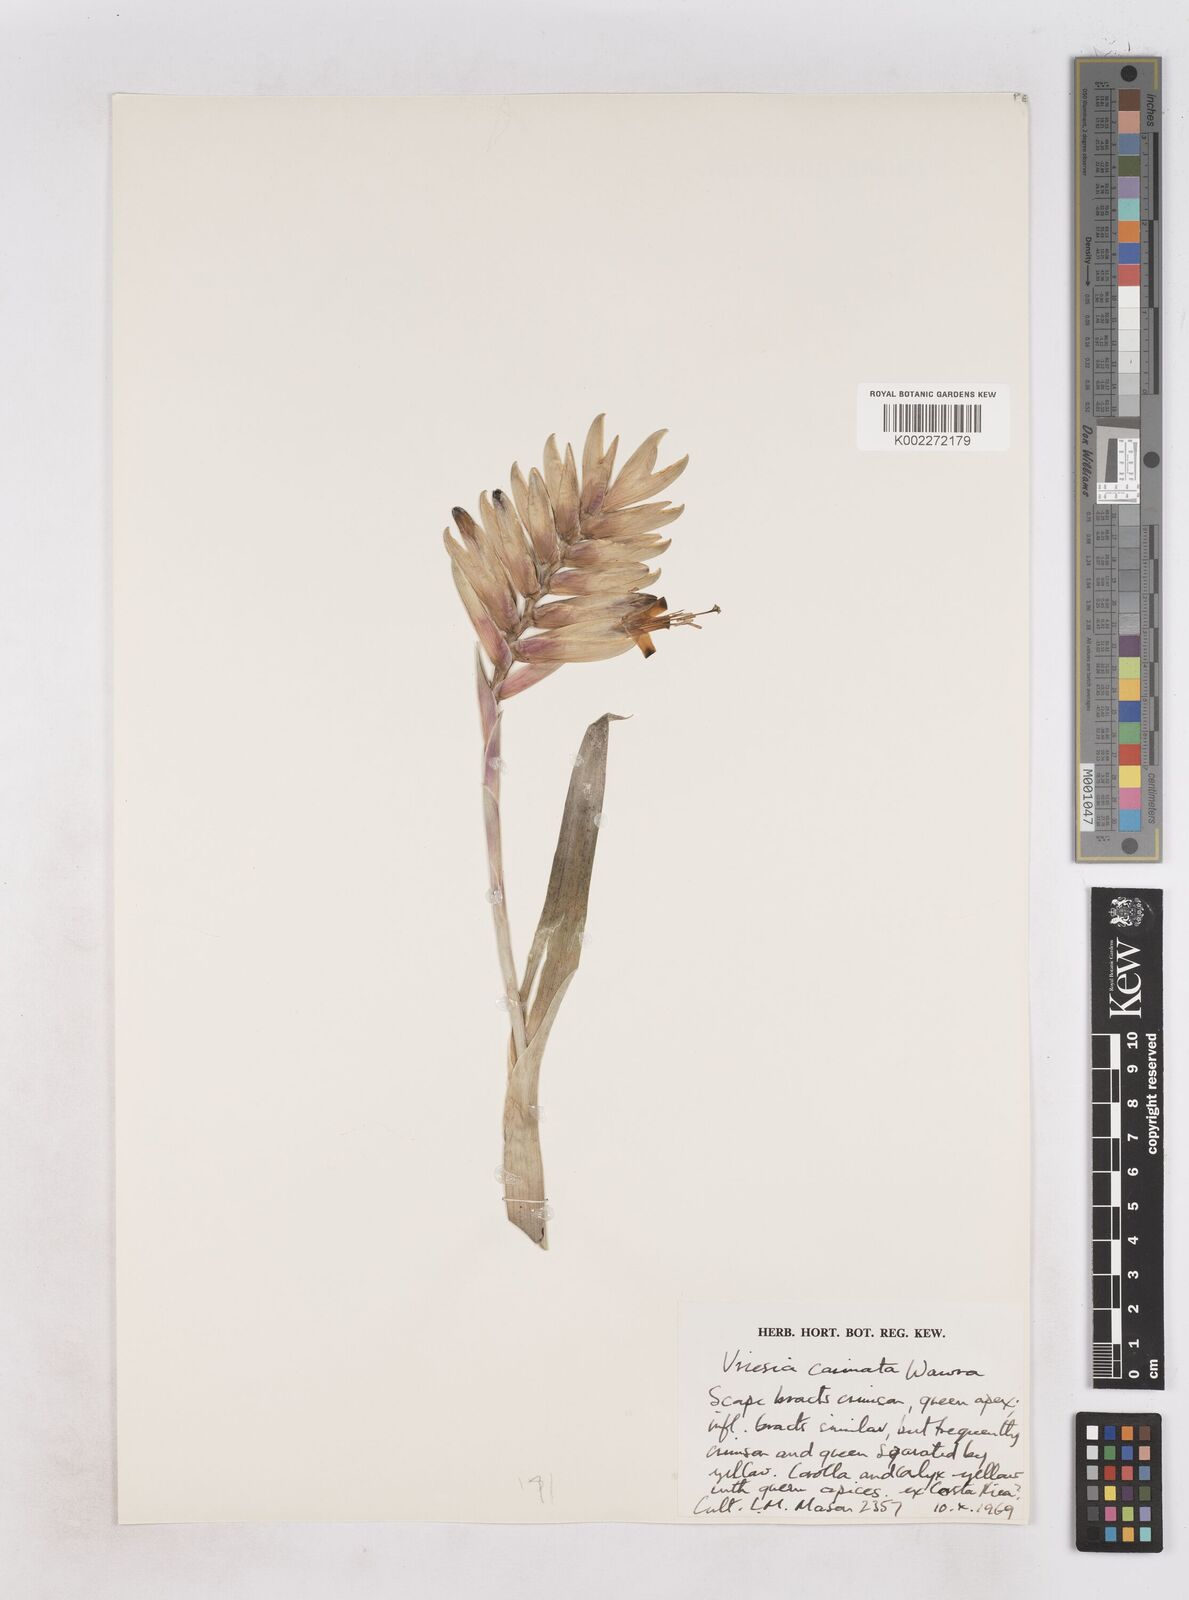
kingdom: Plantae
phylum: Tracheophyta
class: Liliopsida
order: Poales
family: Bromeliaceae
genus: Vriesea
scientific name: Vriesea carinata
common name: Lobster-claws
